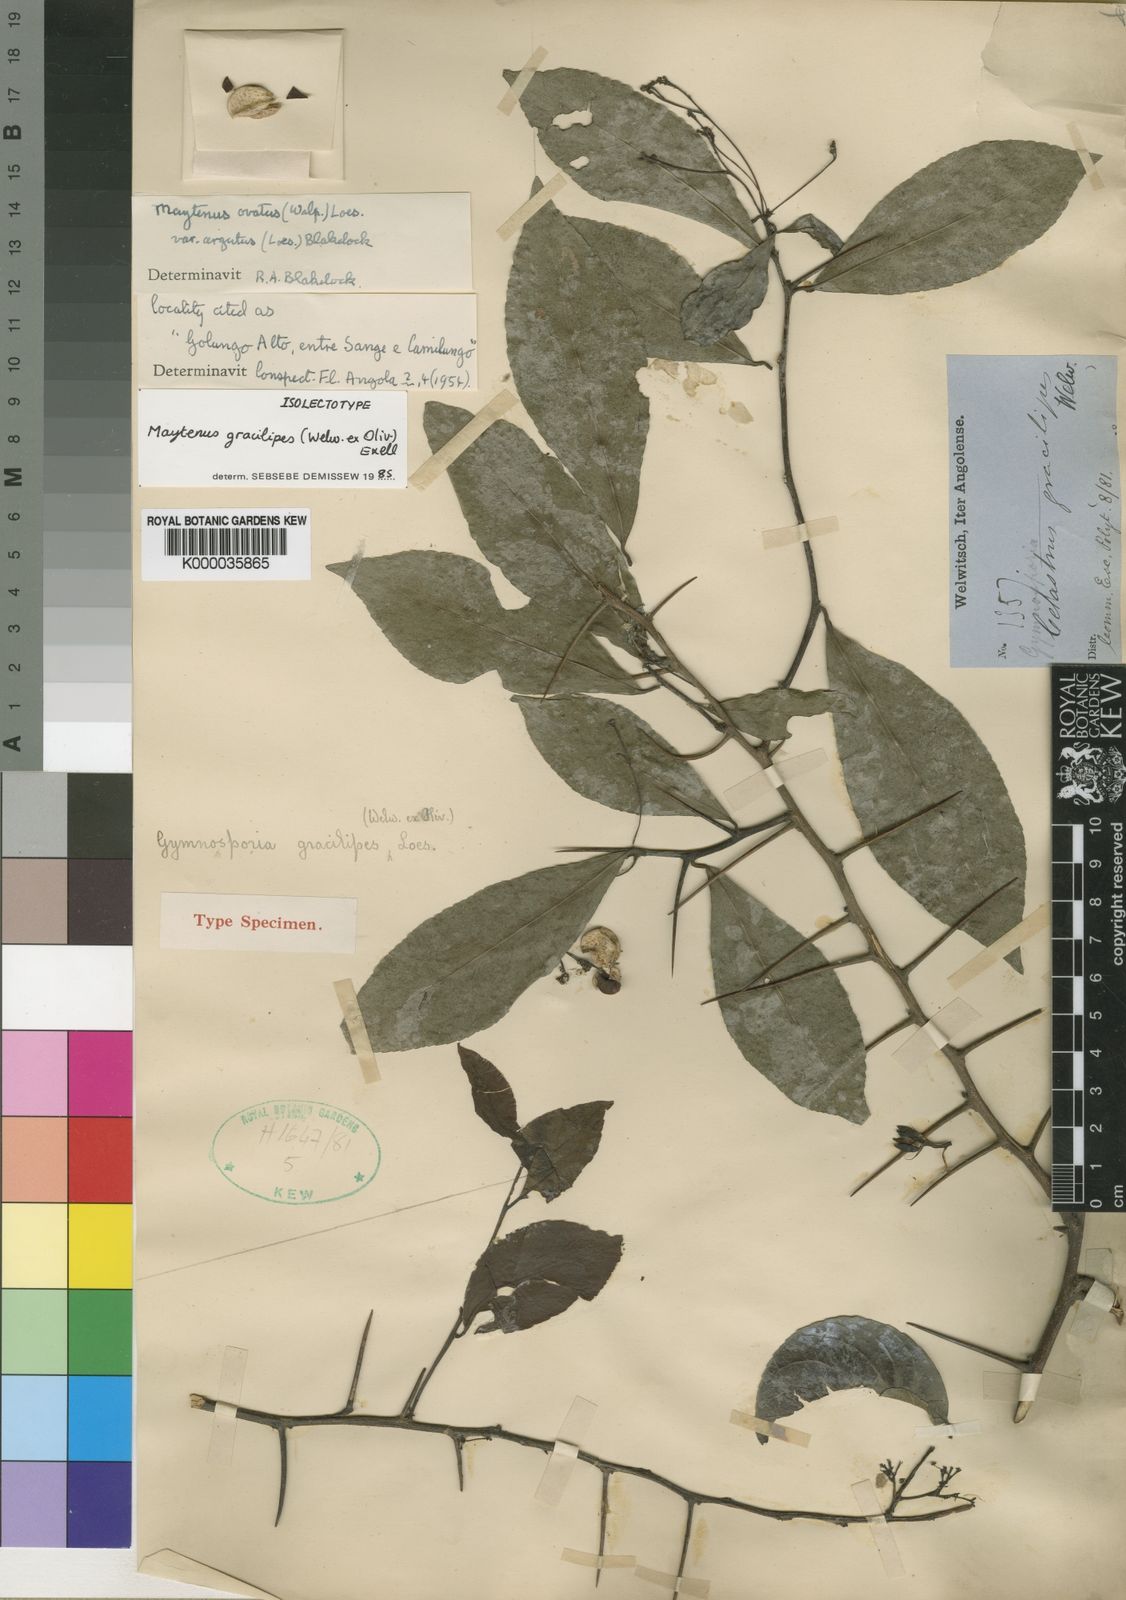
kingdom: Plantae
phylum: Tracheophyta
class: Magnoliopsida
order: Celastrales
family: Celastraceae
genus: Gymnosporia
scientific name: Gymnosporia gracilipes
